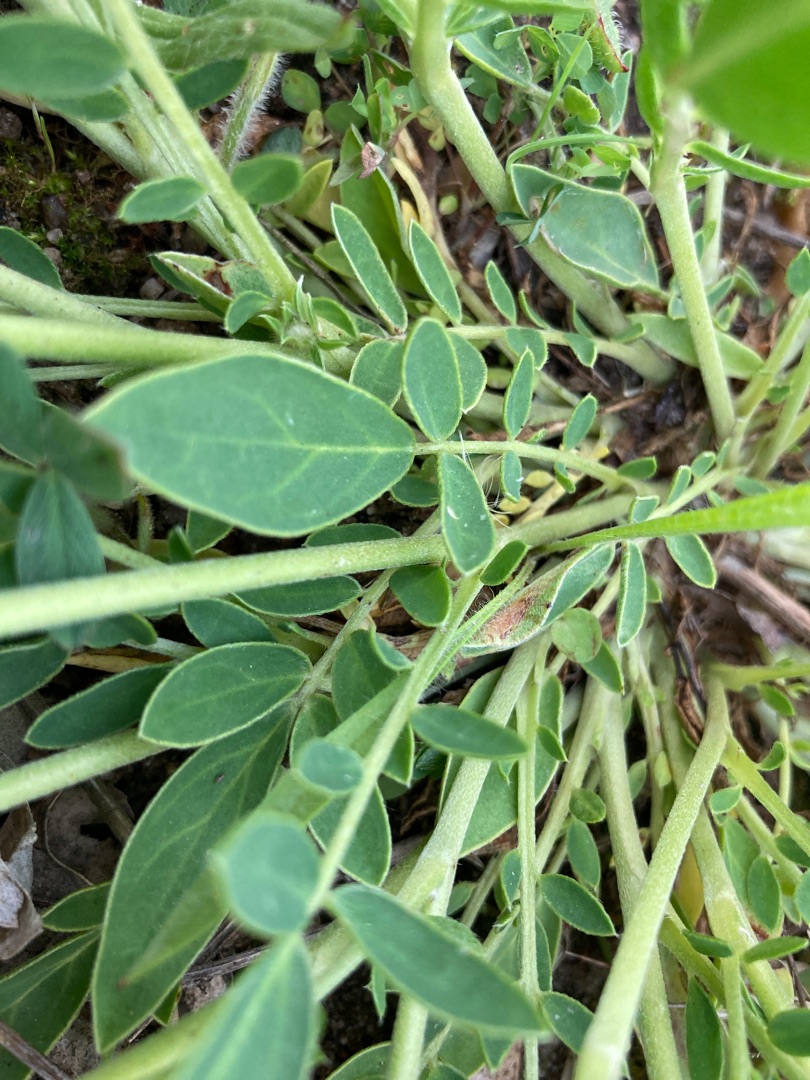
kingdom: Plantae
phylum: Tracheophyta
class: Magnoliopsida
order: Fabales
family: Fabaceae
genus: Anthyllis
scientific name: Anthyllis vulneraria
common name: Rundbælg
